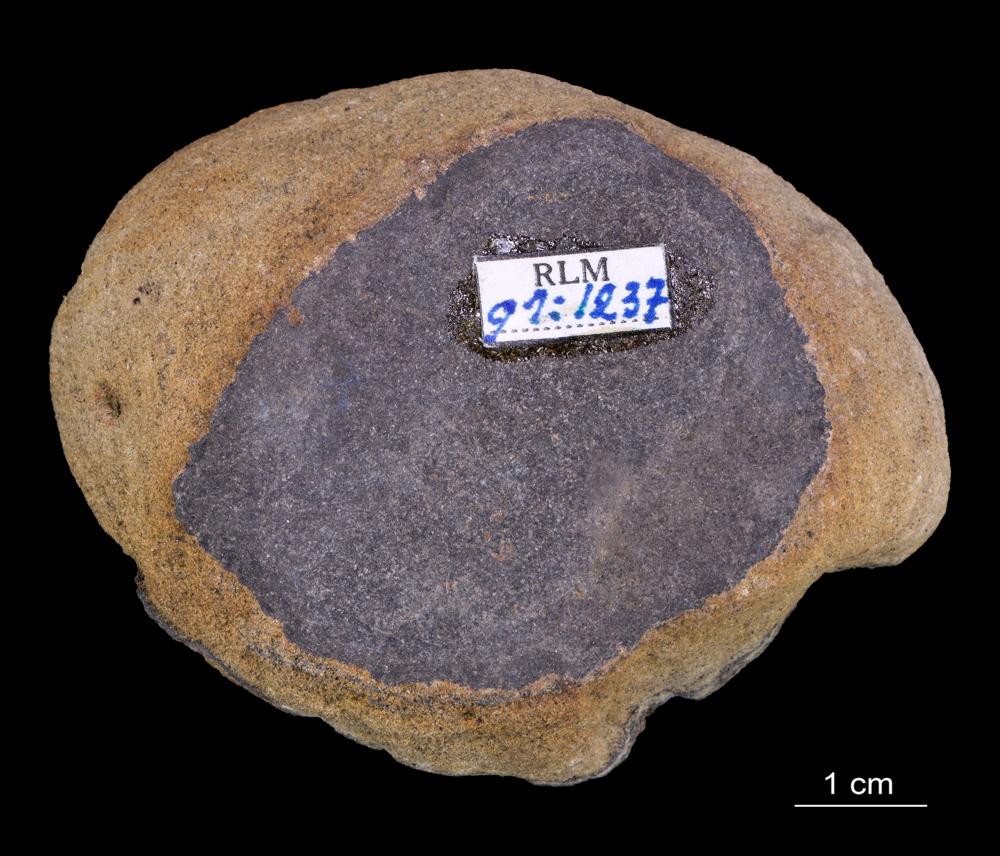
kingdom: Animalia
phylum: Brachiopoda
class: Lingulata
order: Lingulida
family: Obolidae
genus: Obolus
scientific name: Obolus
